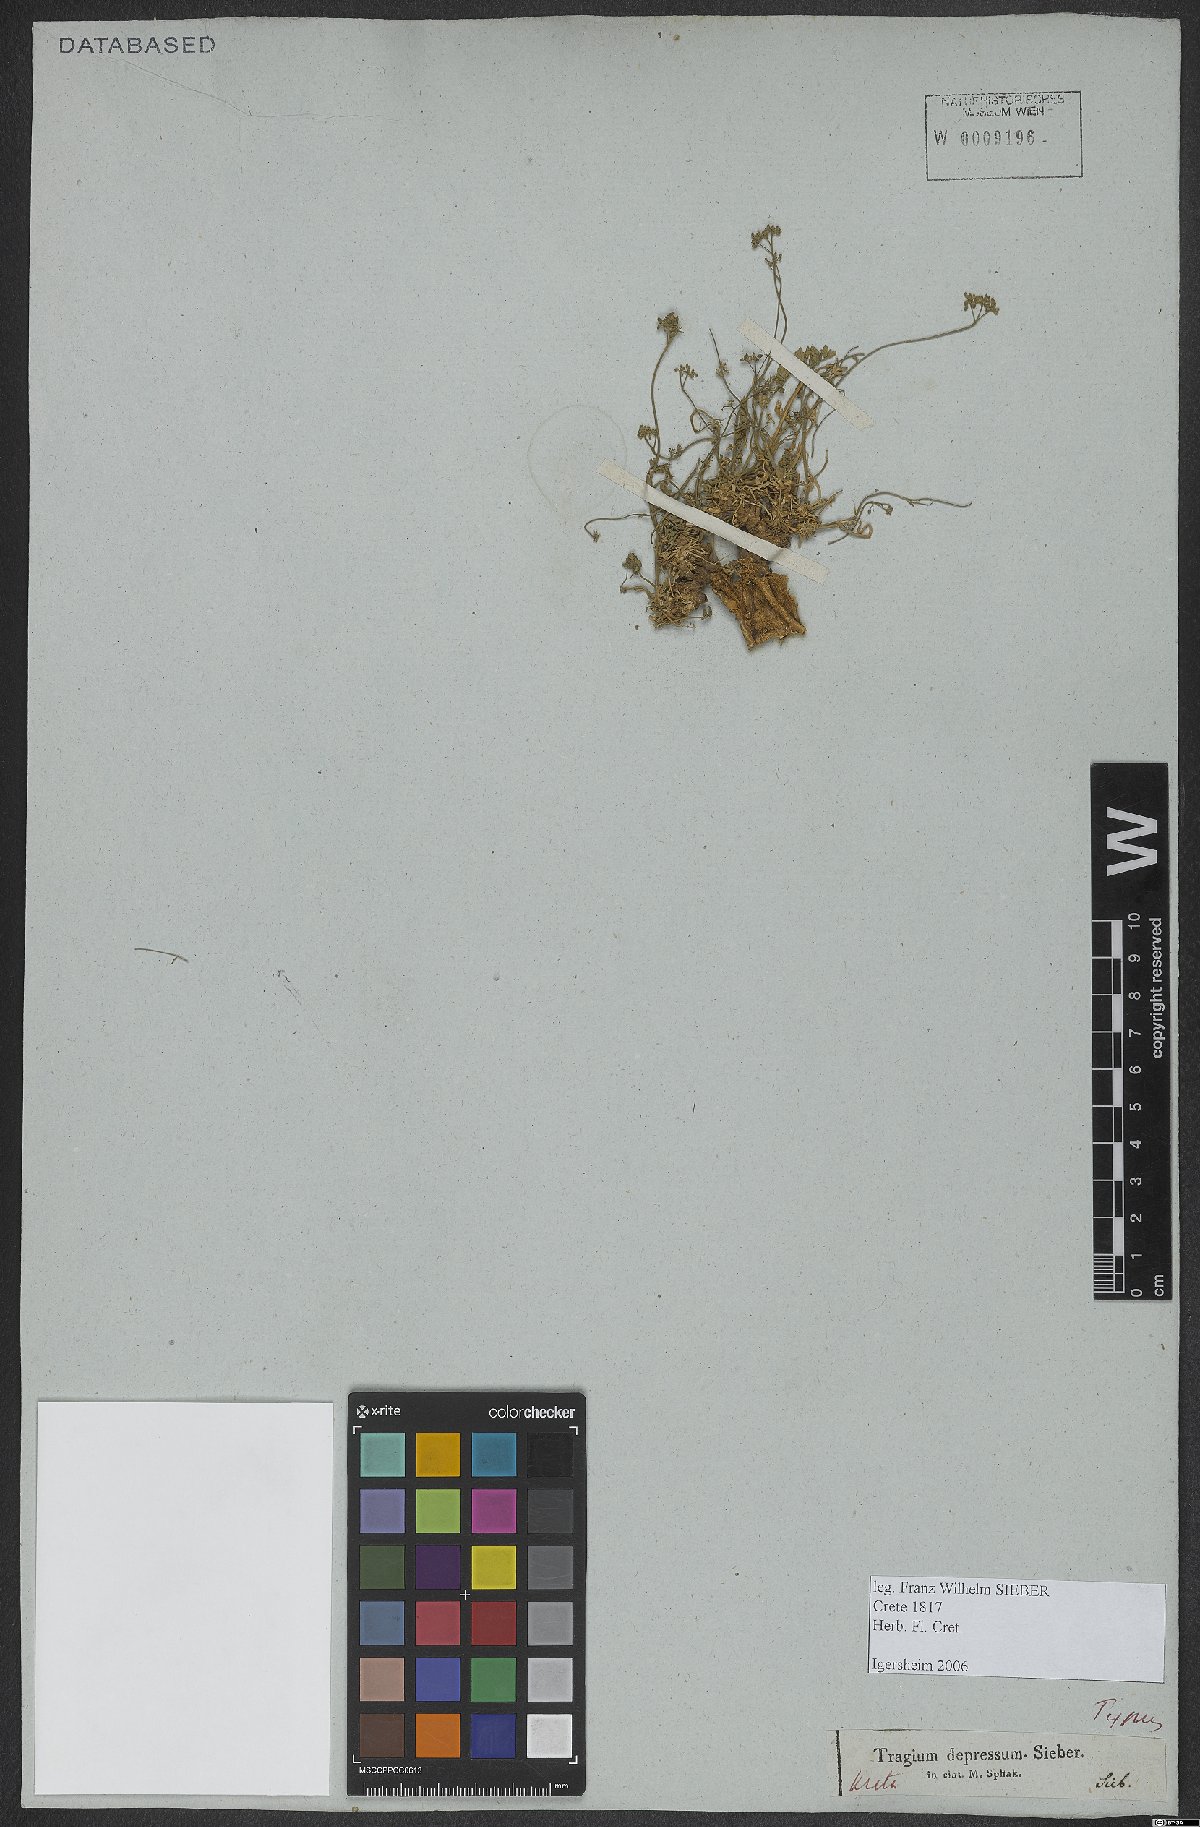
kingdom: Plantae
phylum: Tracheophyta
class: Magnoliopsida
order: Apiales
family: Apiaceae
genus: Pimpinella
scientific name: Pimpinella tragium
